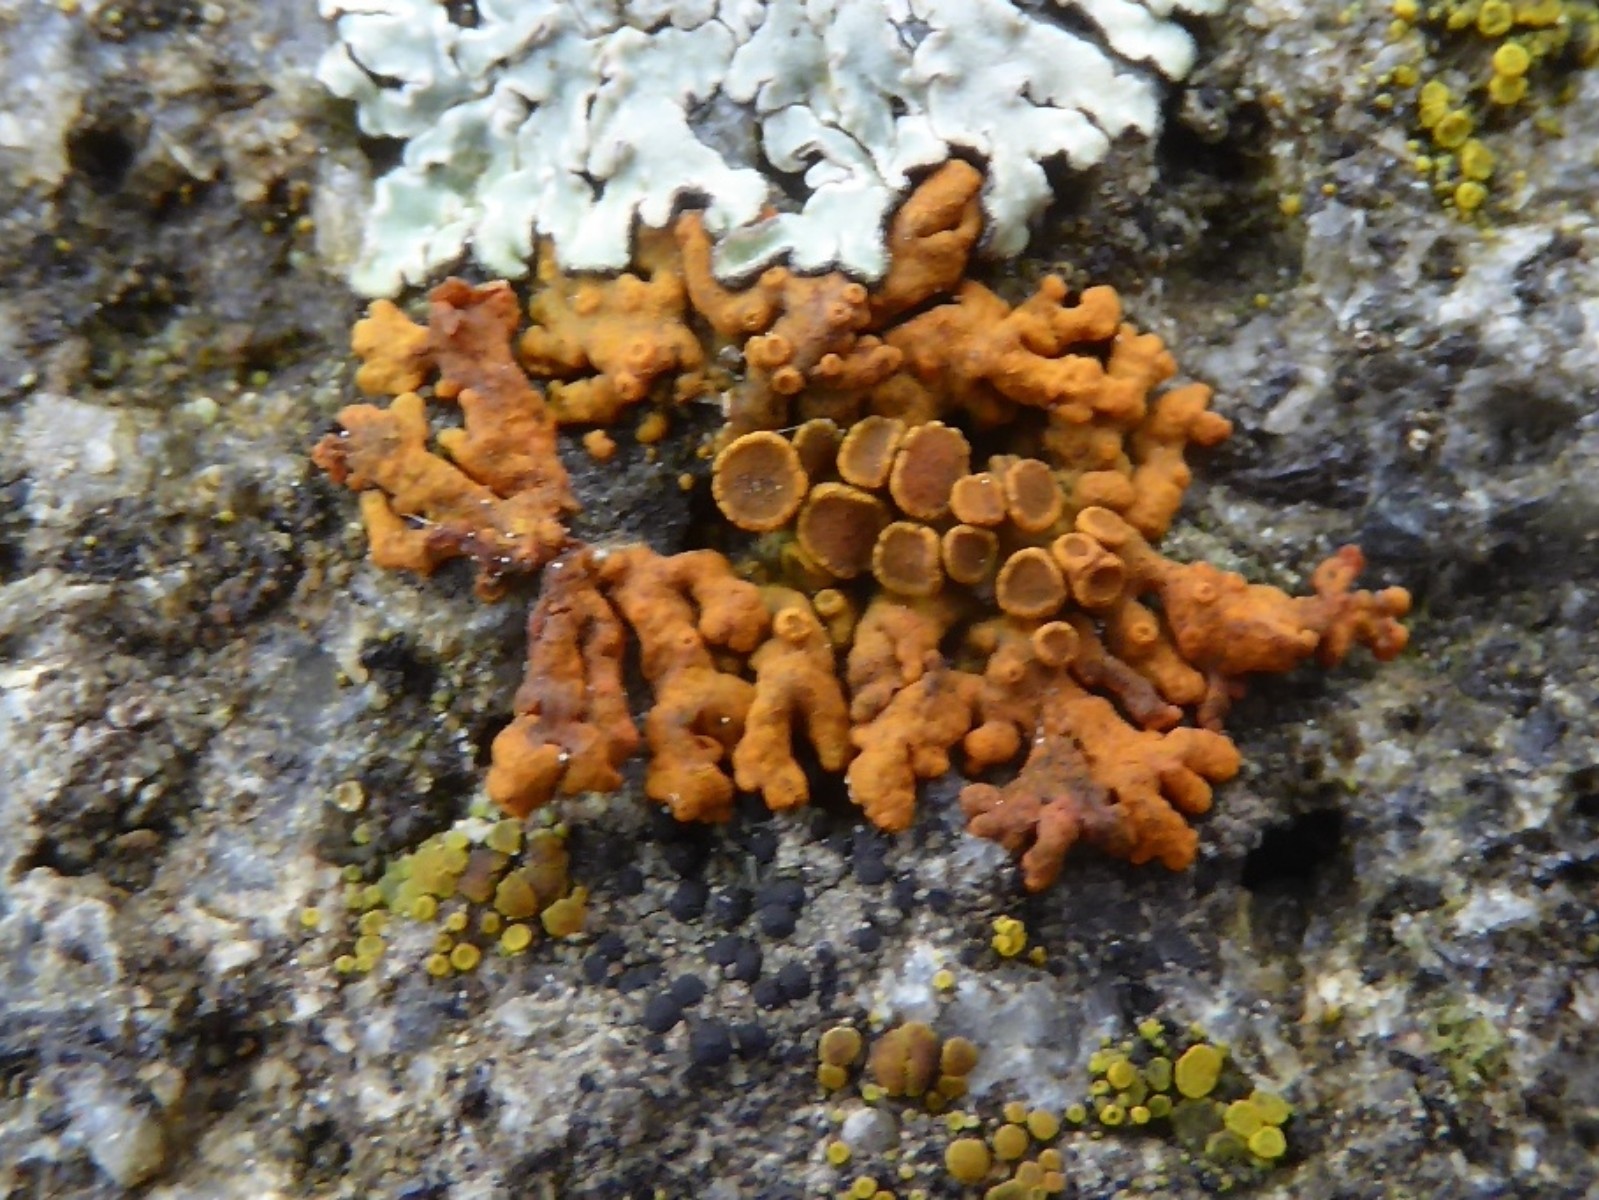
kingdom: Fungi
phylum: Ascomycota
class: Lecanoromycetes
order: Teloschistales
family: Teloschistaceae
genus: Xanthoria
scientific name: Xanthoria elegans
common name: fjeld-væggelav
